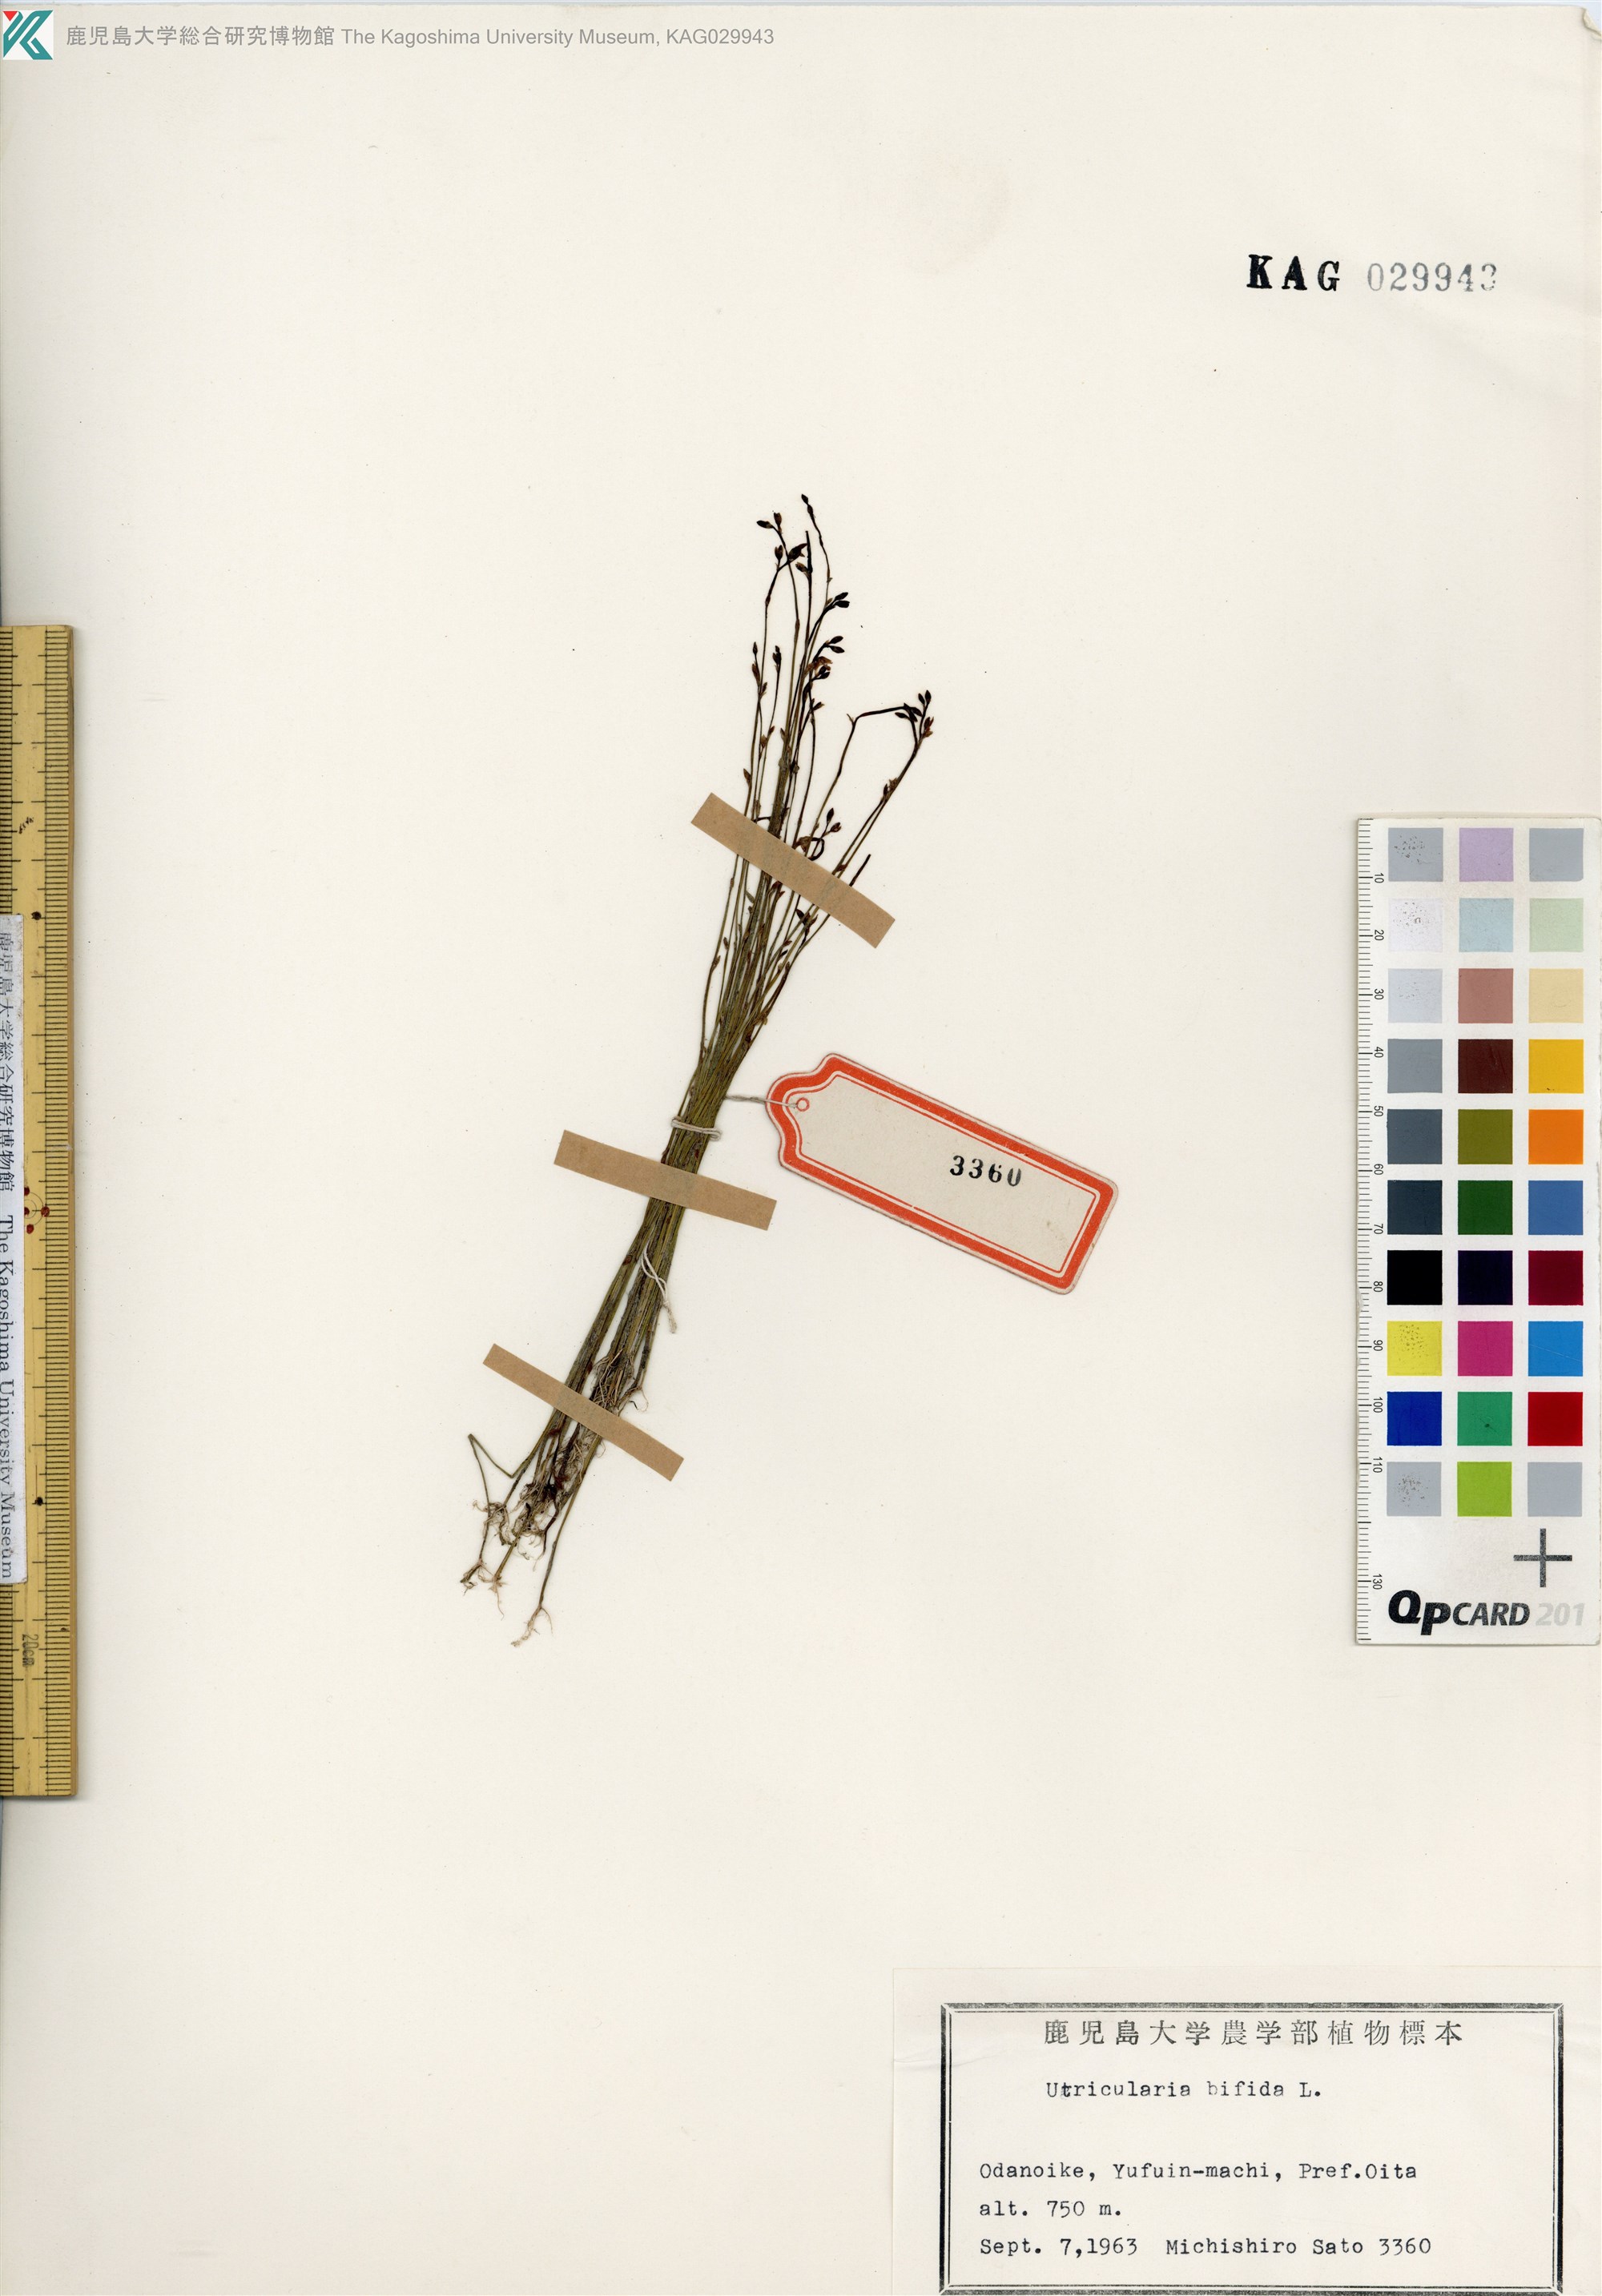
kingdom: Plantae
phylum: Tracheophyta
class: Magnoliopsida
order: Lamiales
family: Lentibulariaceae
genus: Utricularia
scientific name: Utricularia bifida
